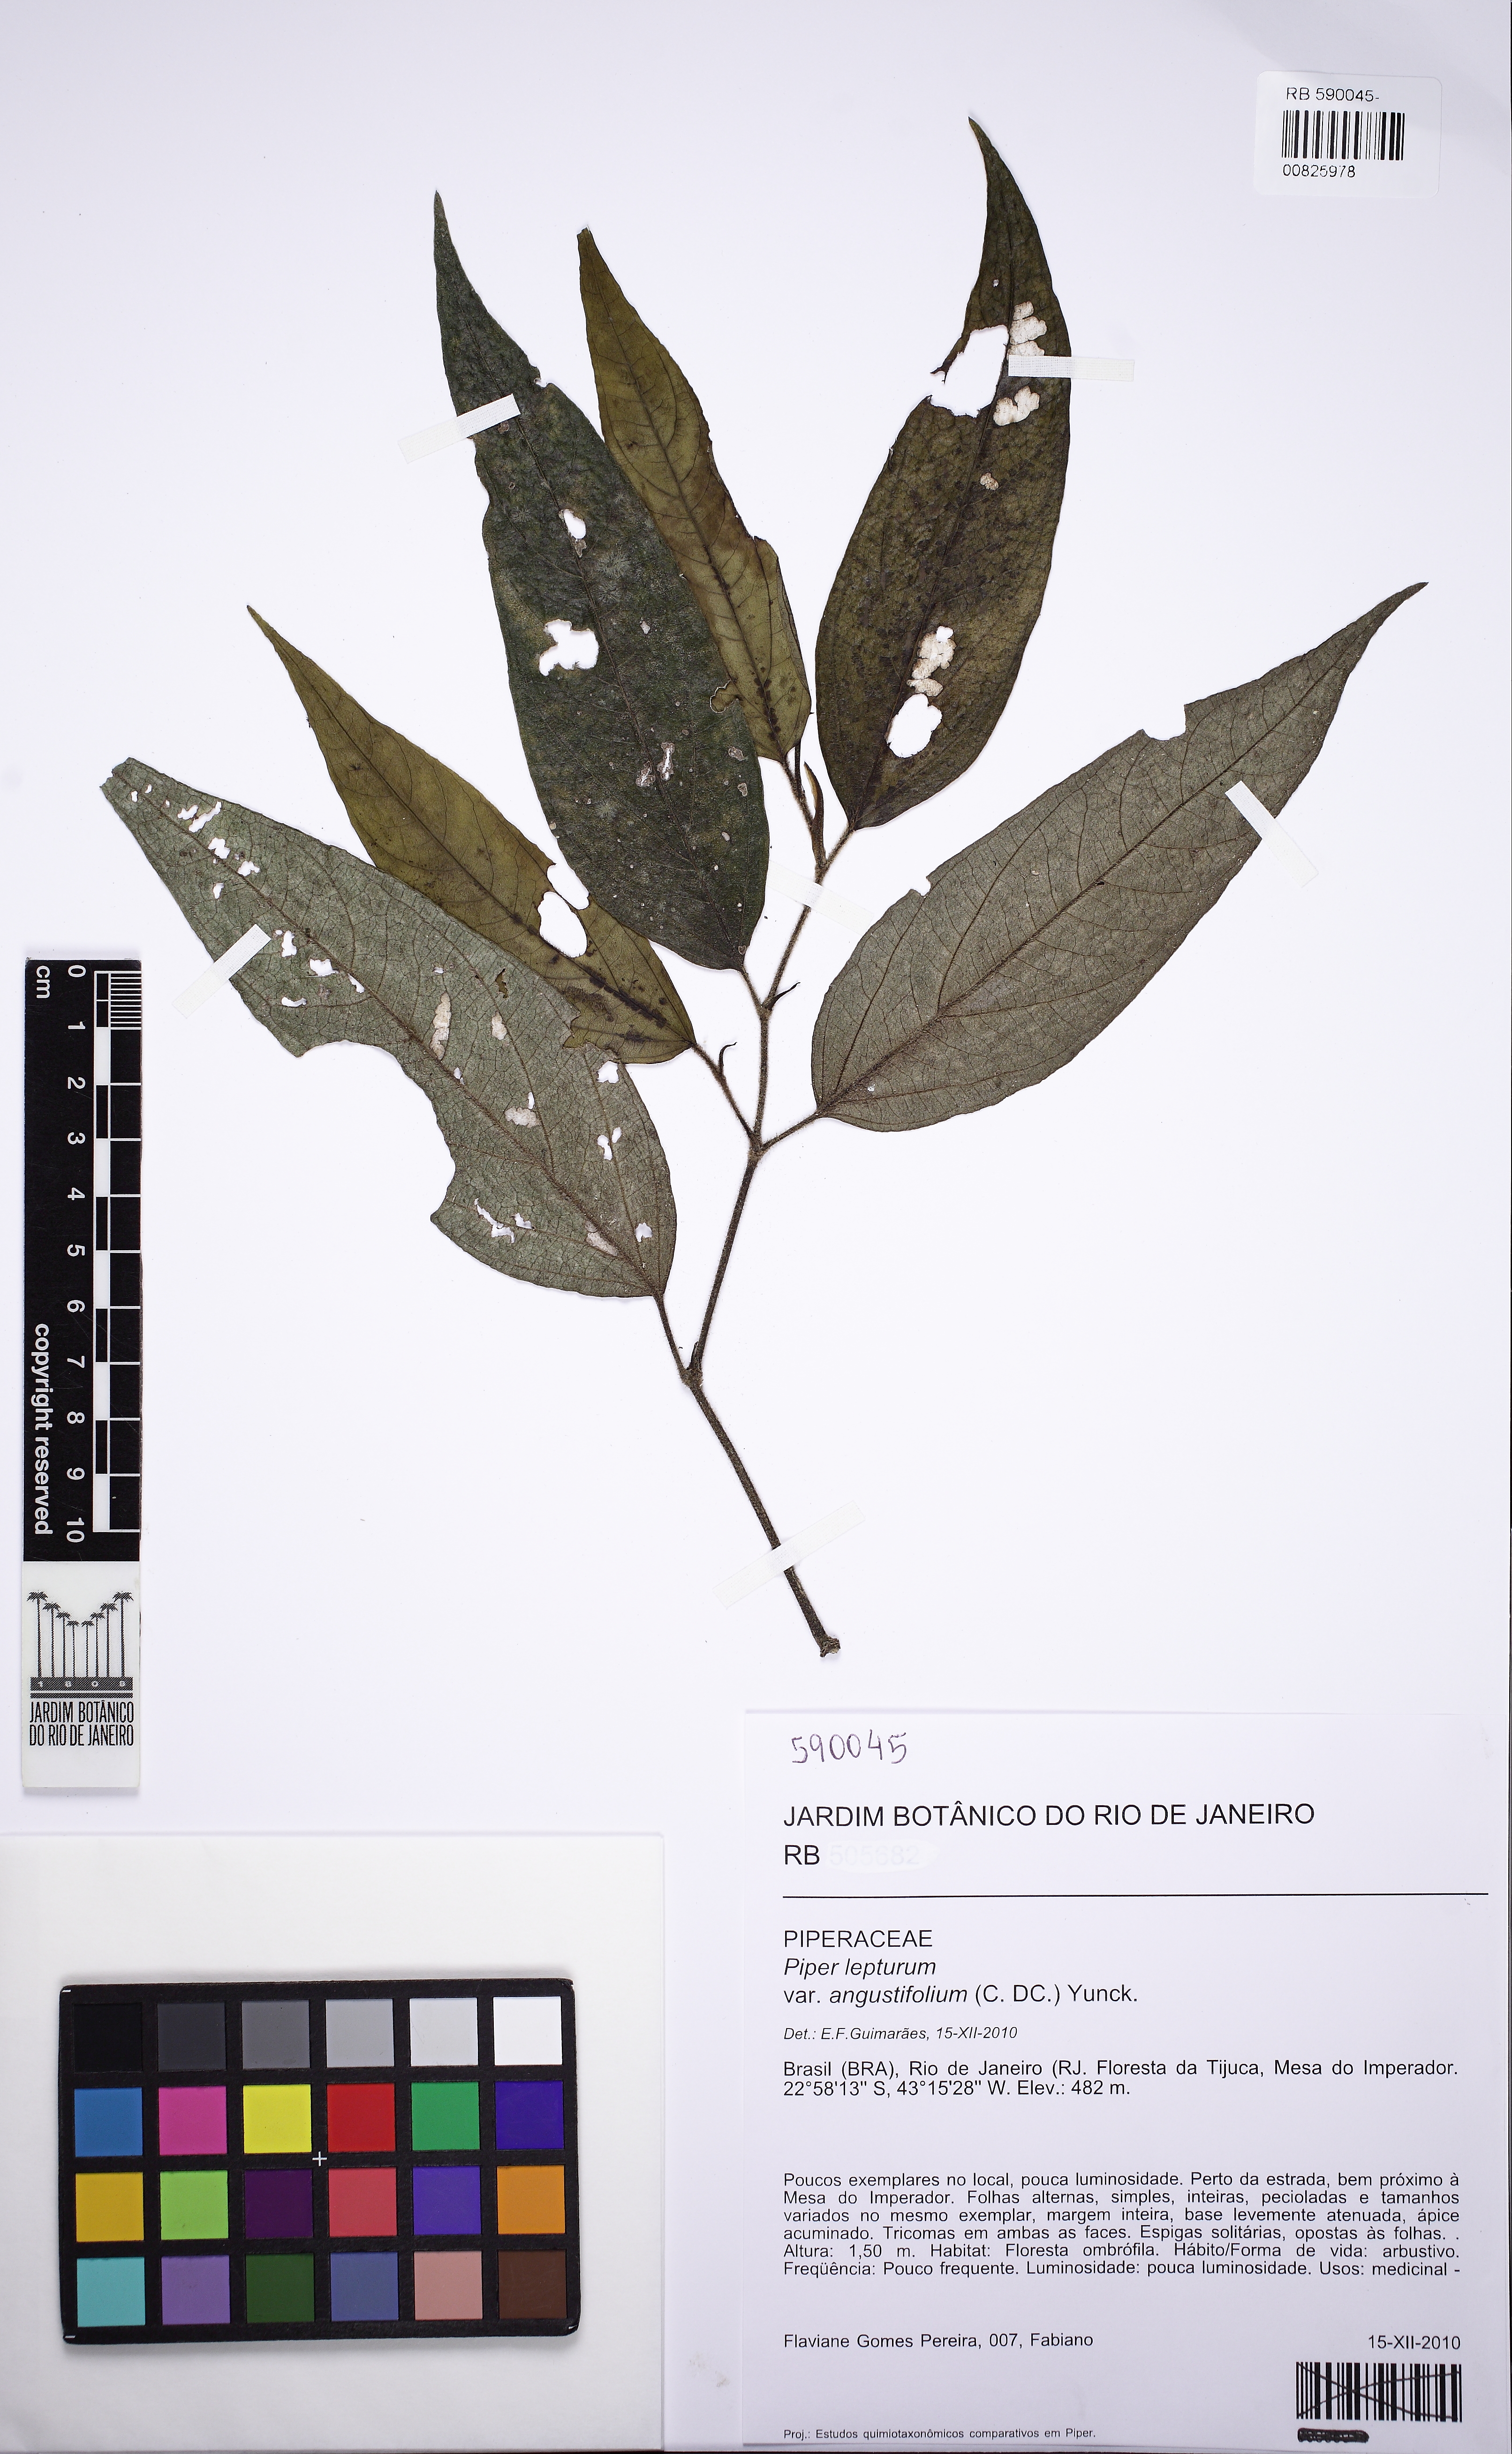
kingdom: Plantae
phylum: Tracheophyta
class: Magnoliopsida
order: Piperales
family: Piperaceae
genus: Piper
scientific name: Piper
